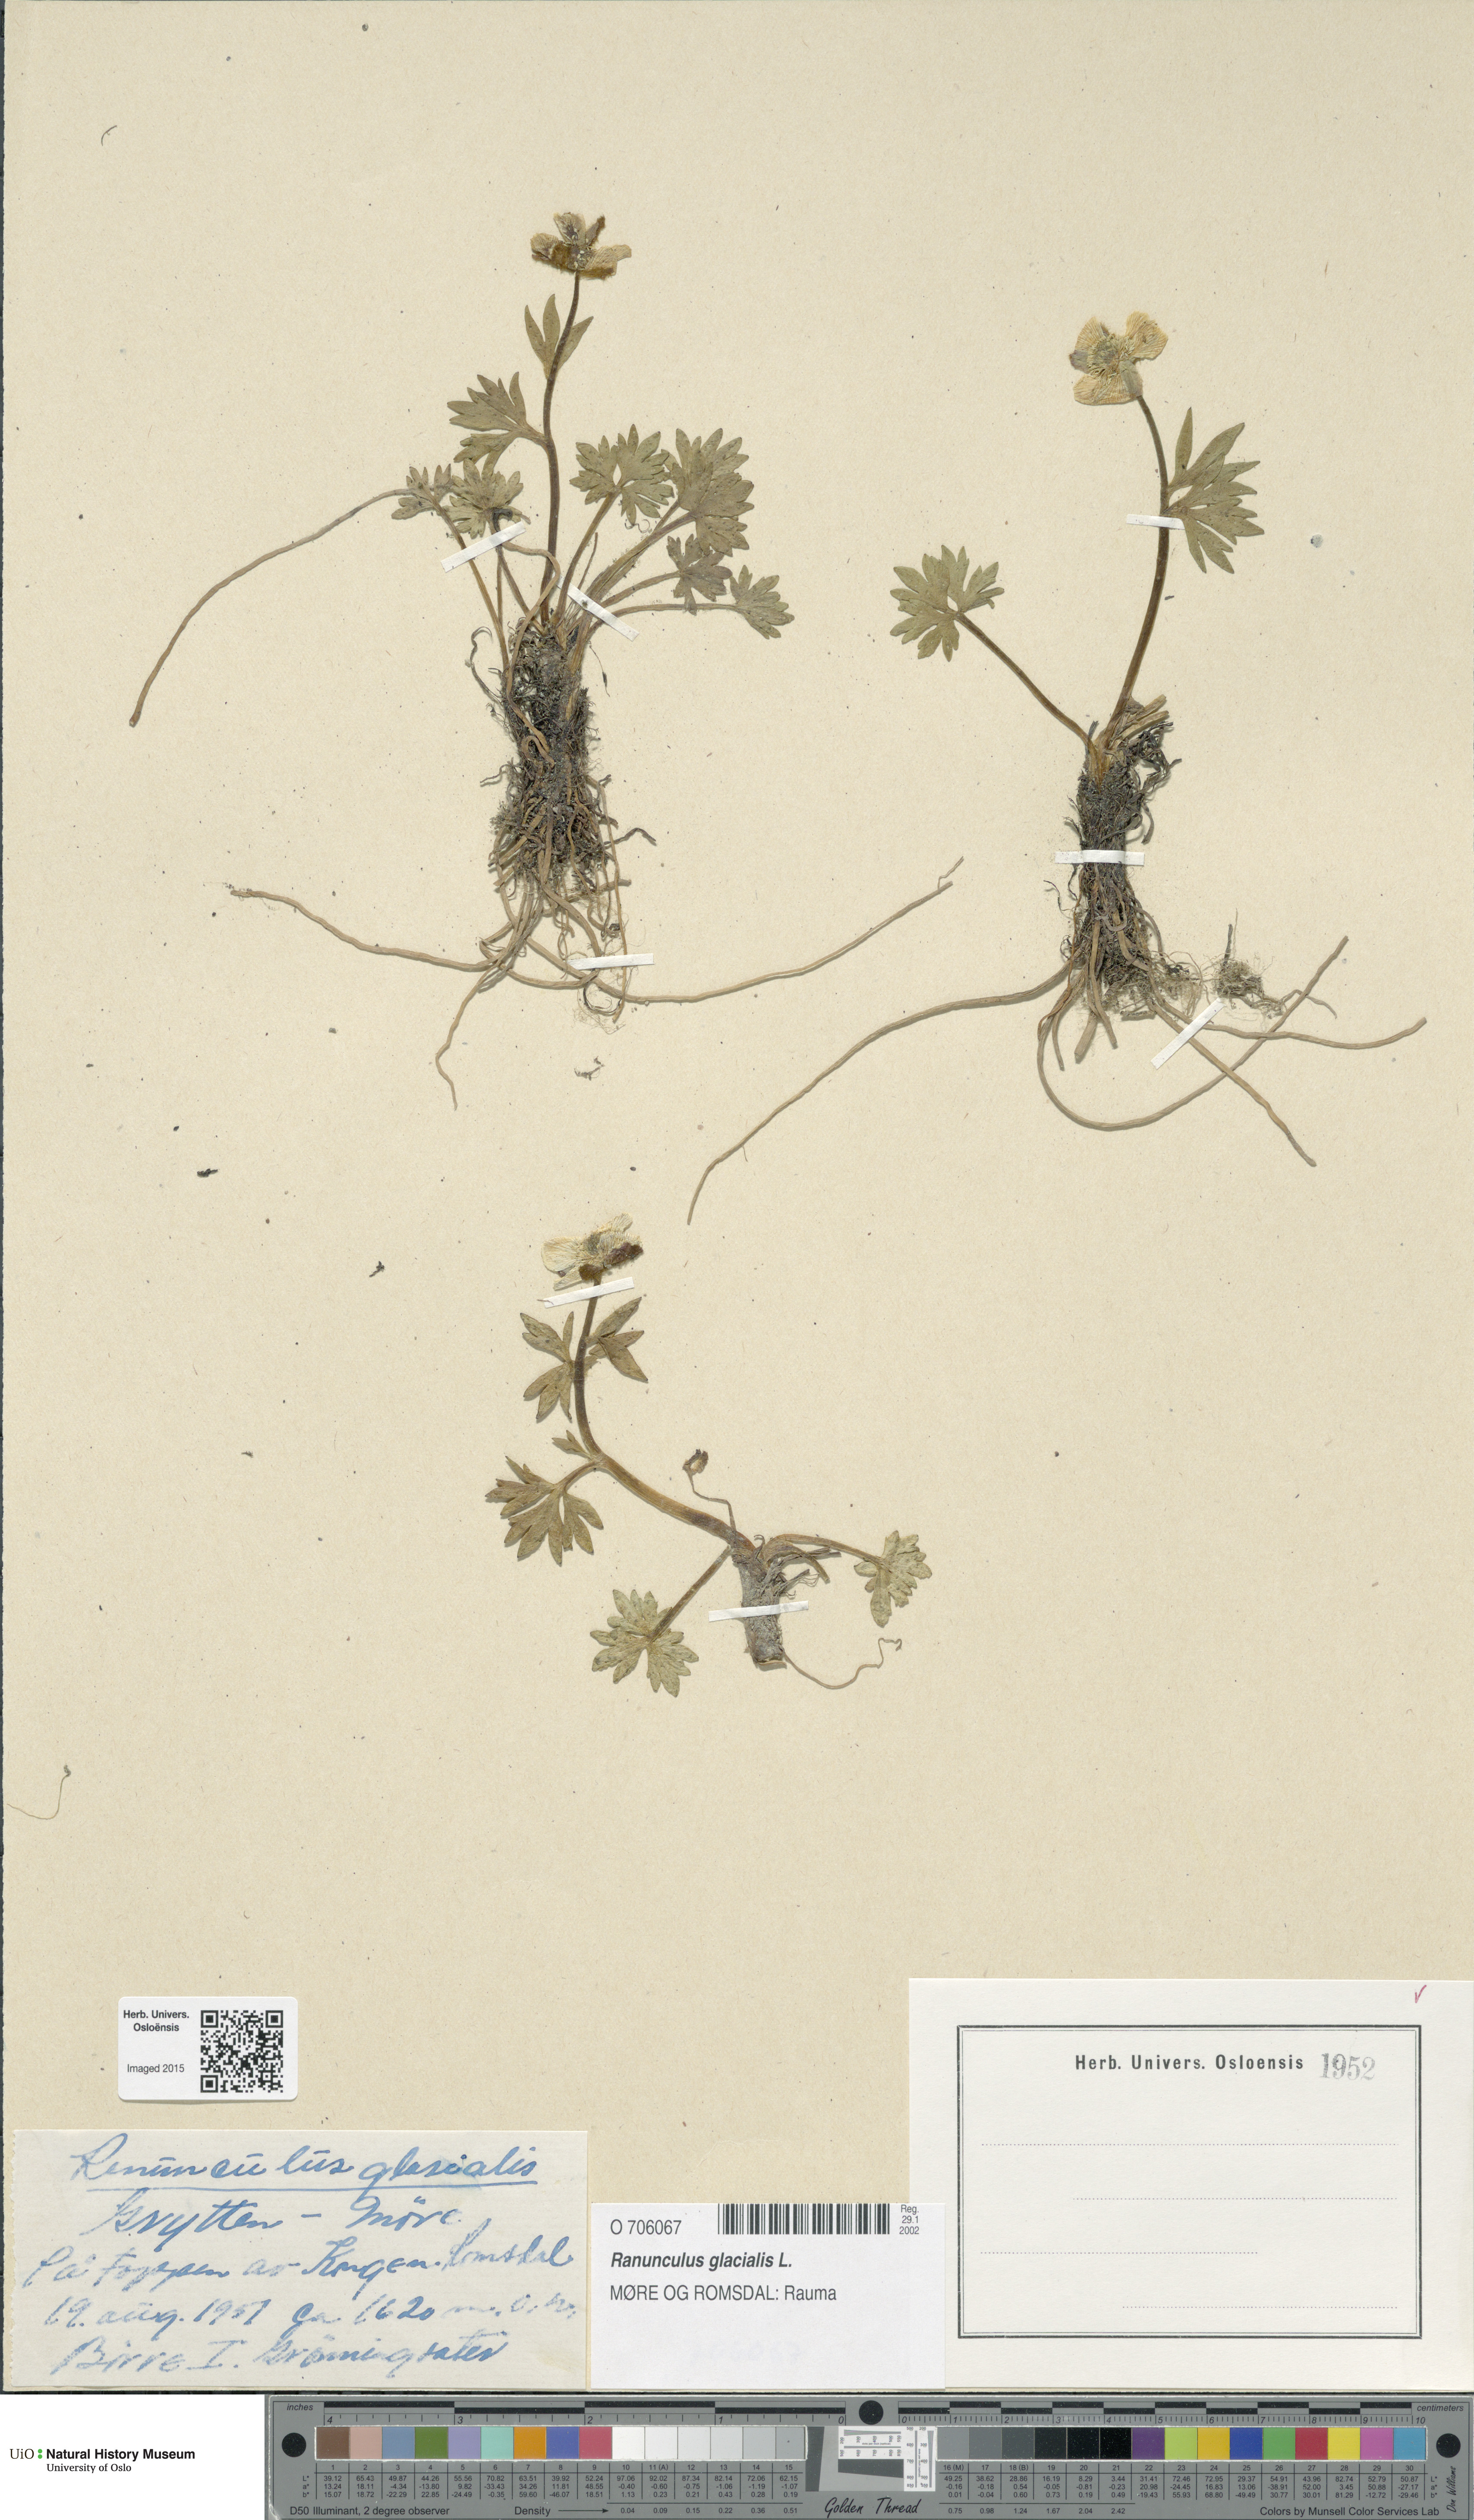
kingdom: Plantae
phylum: Tracheophyta
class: Magnoliopsida
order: Ranunculales
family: Ranunculaceae
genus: Ranunculus
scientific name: Ranunculus glacialis
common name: Glacier buttercup
